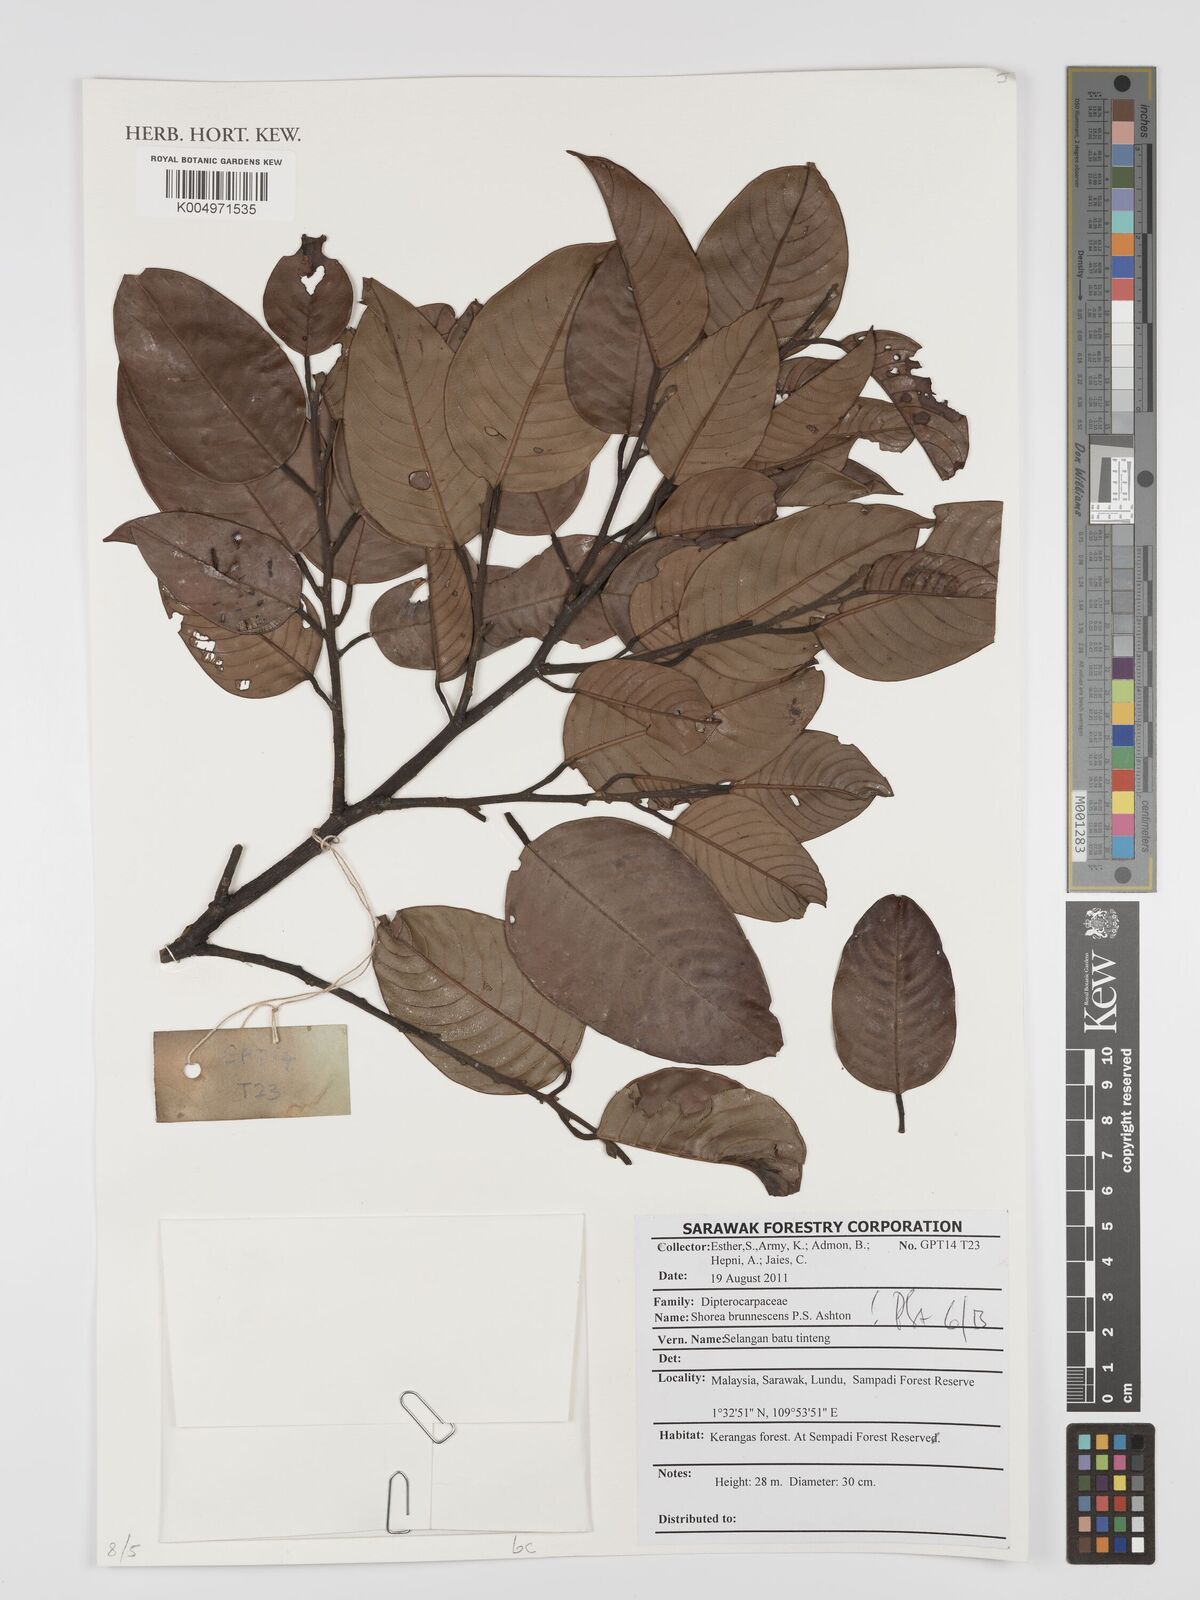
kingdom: Plantae
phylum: Tracheophyta
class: Magnoliopsida
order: Malvales
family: Dipterocarpaceae
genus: Shorea
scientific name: Shorea brunnescens
